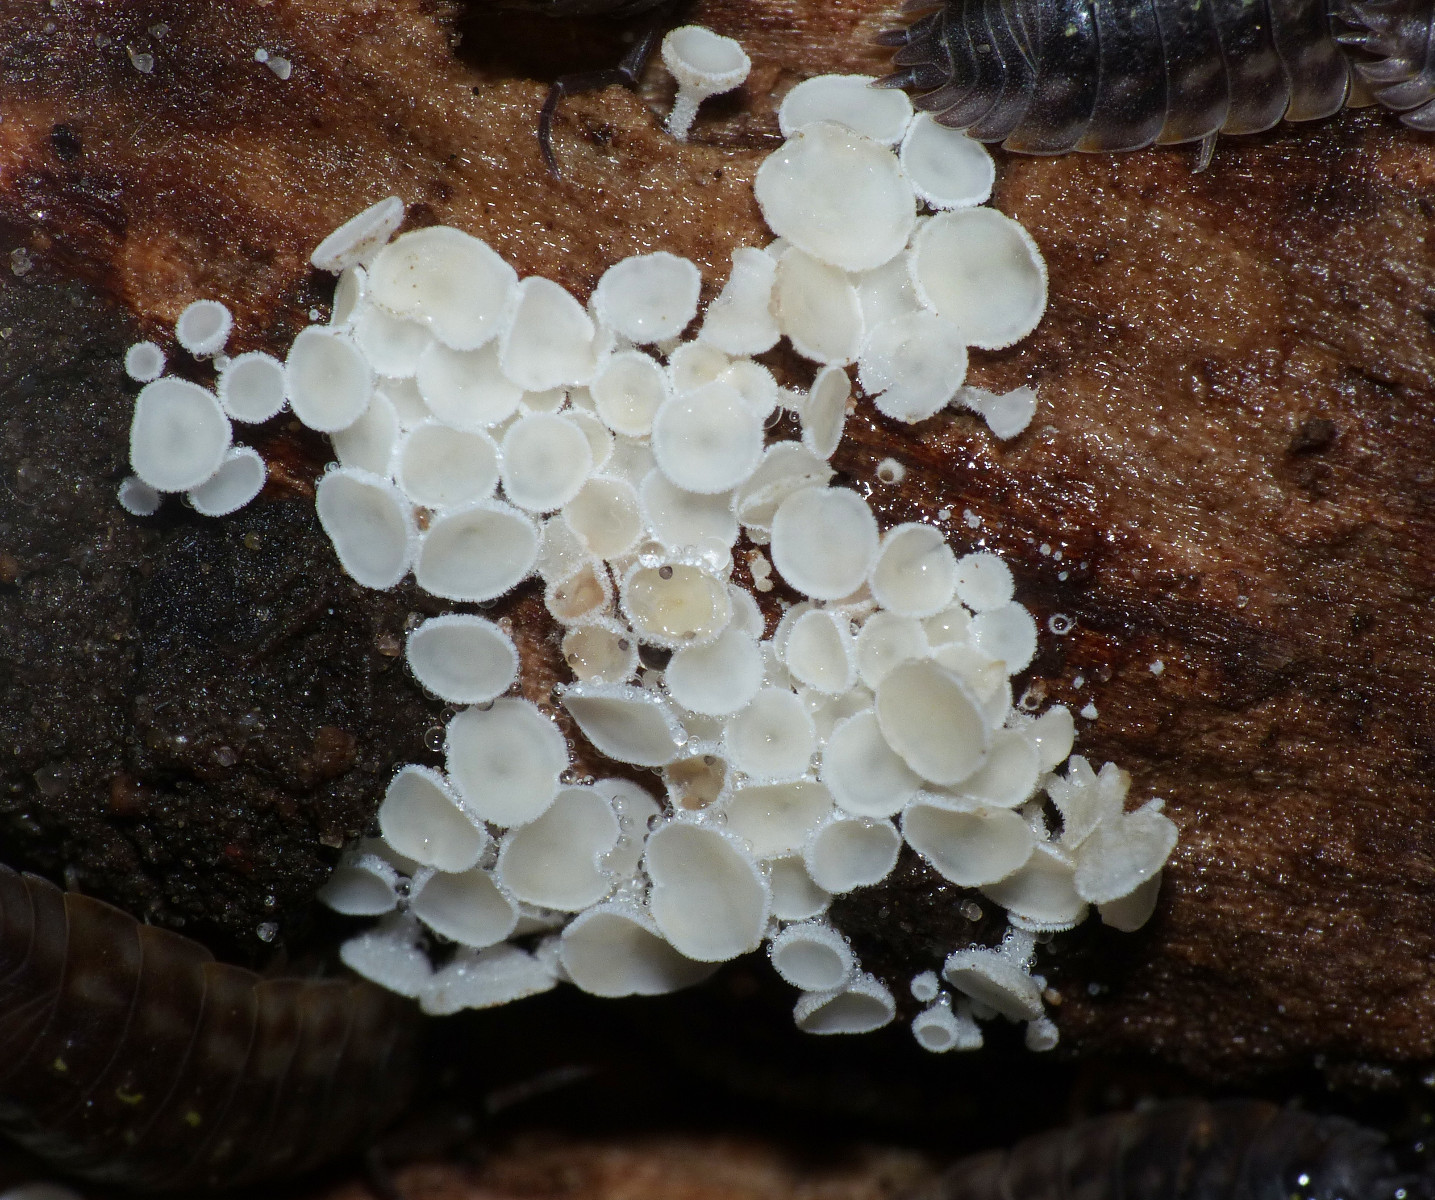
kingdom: Fungi
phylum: Ascomycota
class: Leotiomycetes
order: Helotiales
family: Lachnaceae
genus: Lachnum
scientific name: Lachnum brevipilosum
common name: korthåret frynseskive
